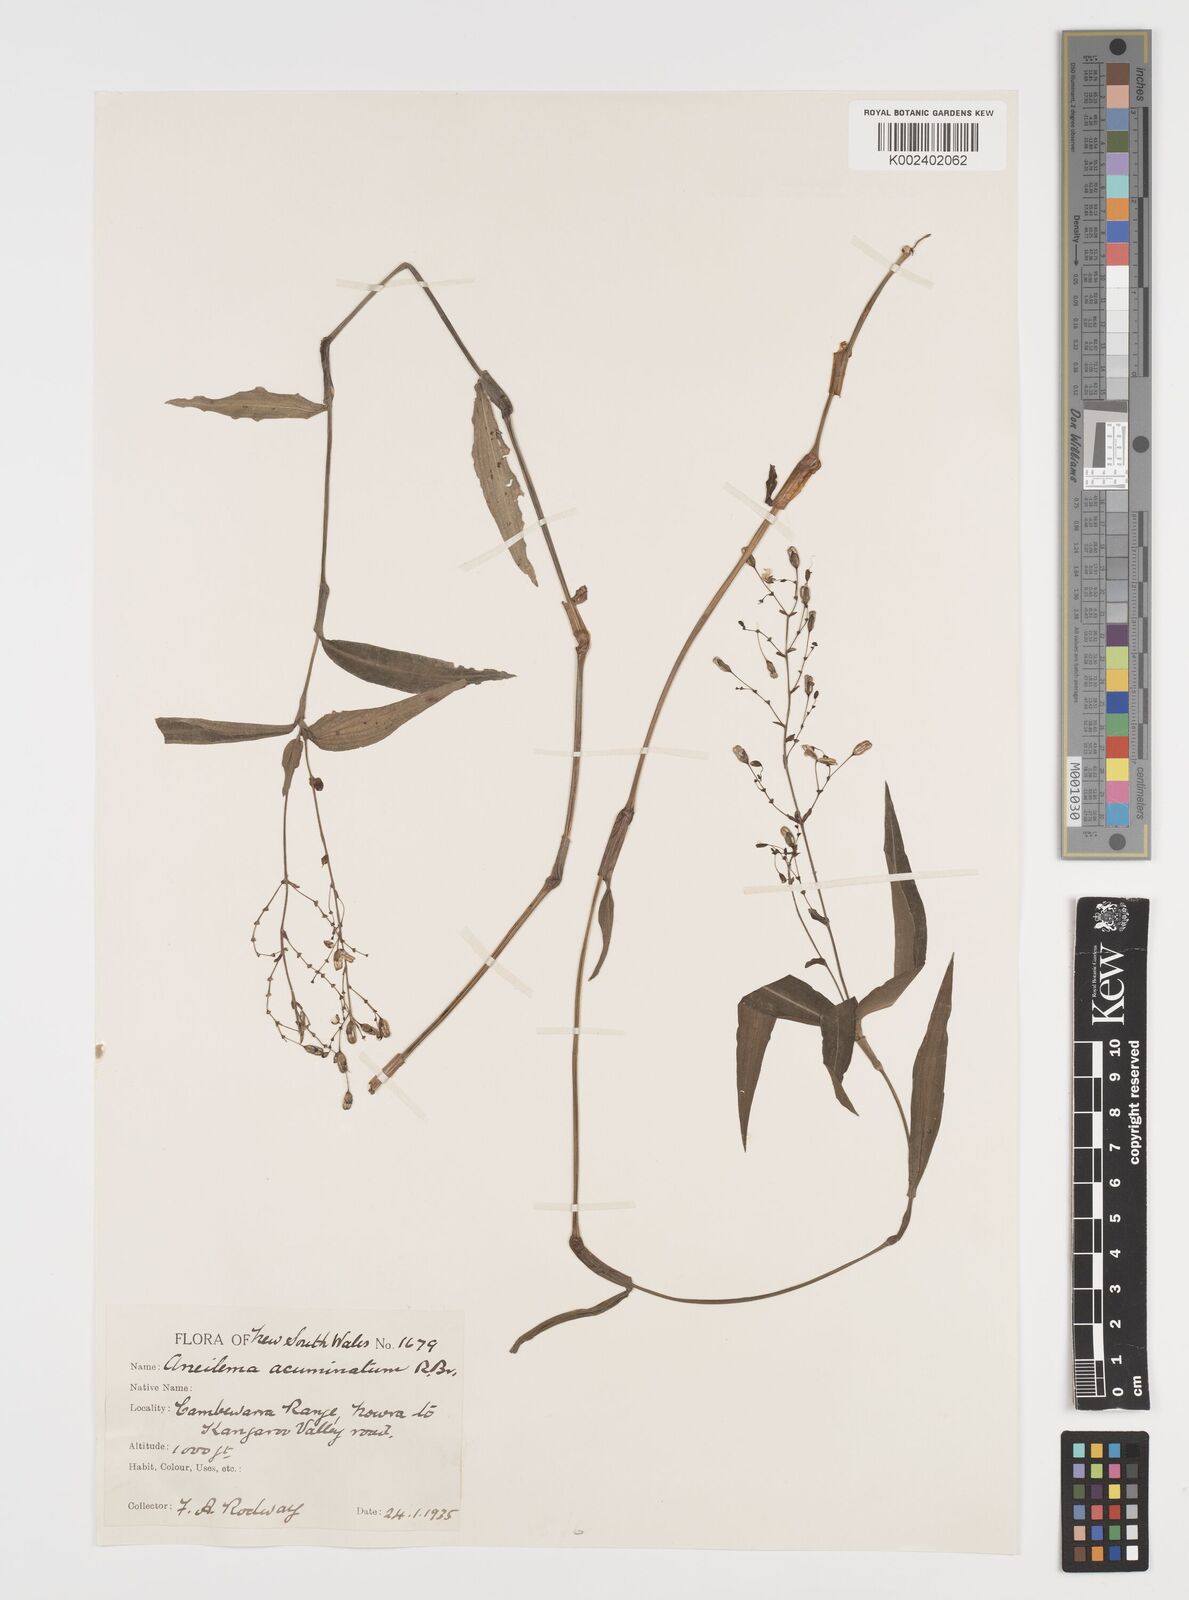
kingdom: Plantae
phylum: Tracheophyta
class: Liliopsida
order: Commelinales
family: Commelinaceae
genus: Aneilema
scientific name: Aneilema acuminatum
